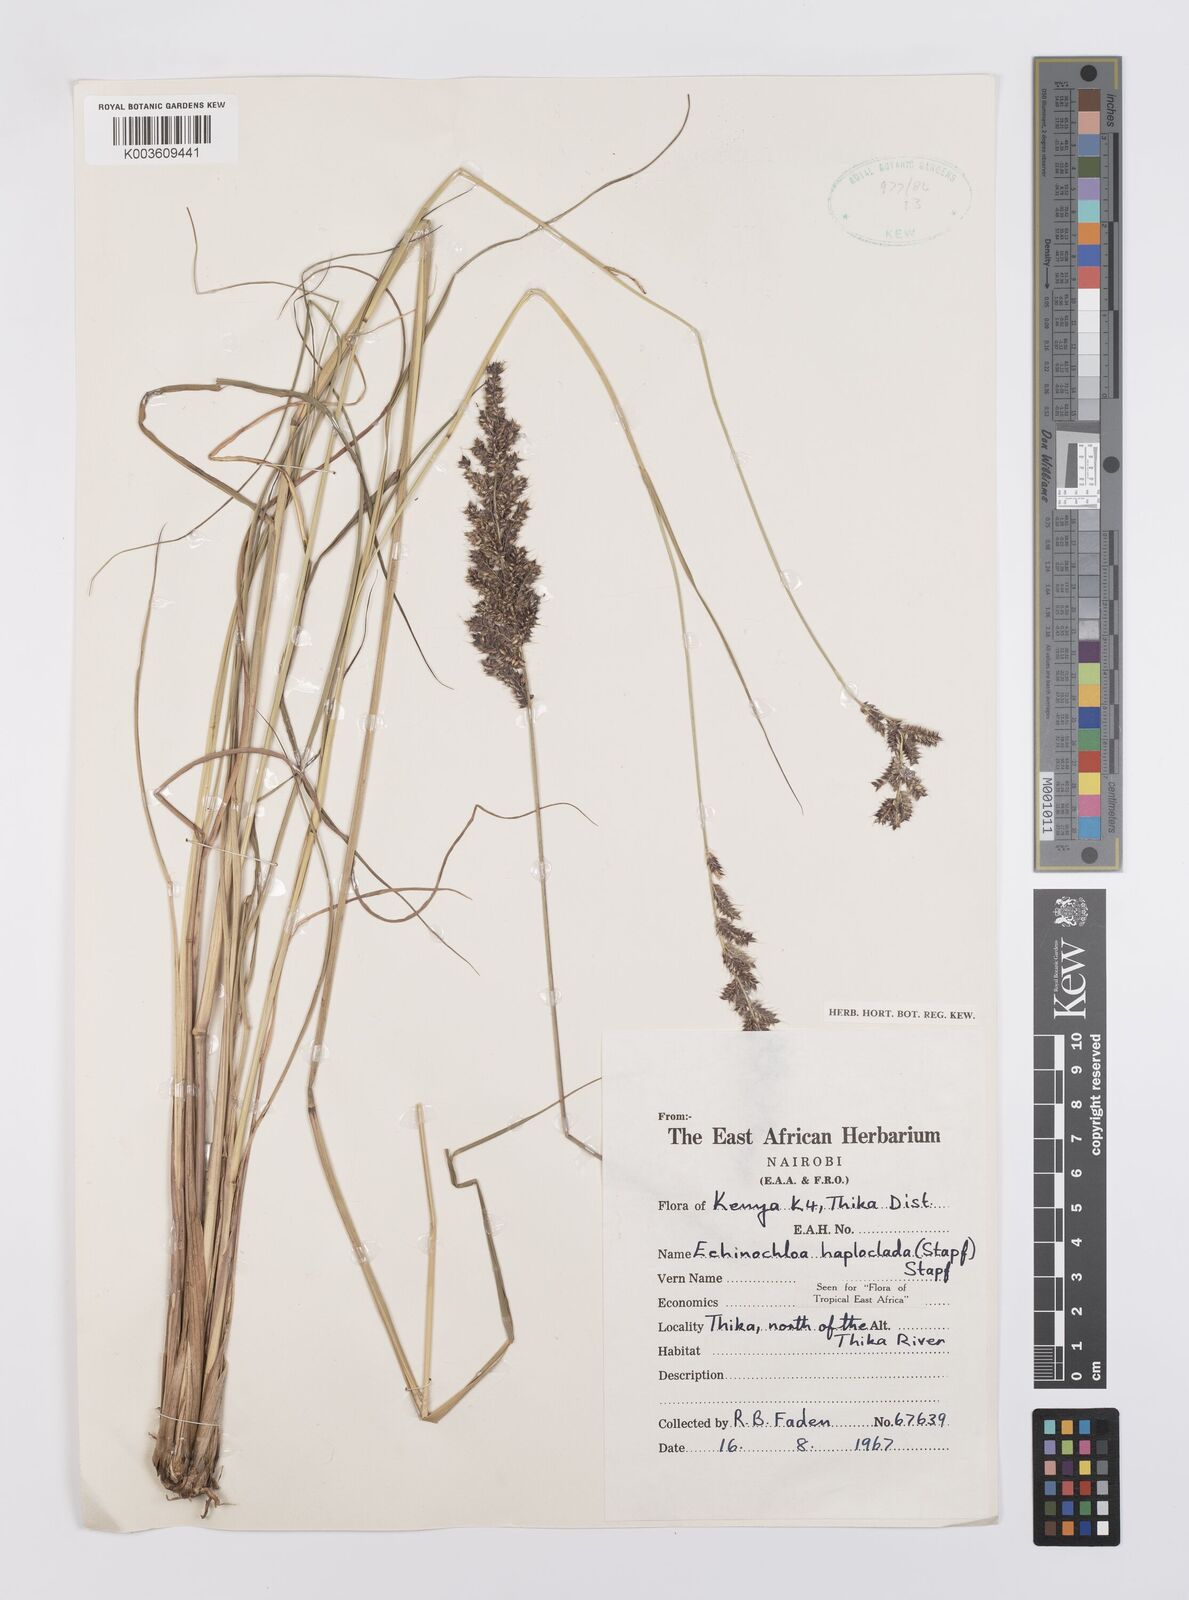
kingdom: Plantae
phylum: Tracheophyta
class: Liliopsida
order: Poales
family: Poaceae
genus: Echinochloa
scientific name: Echinochloa haploclada
